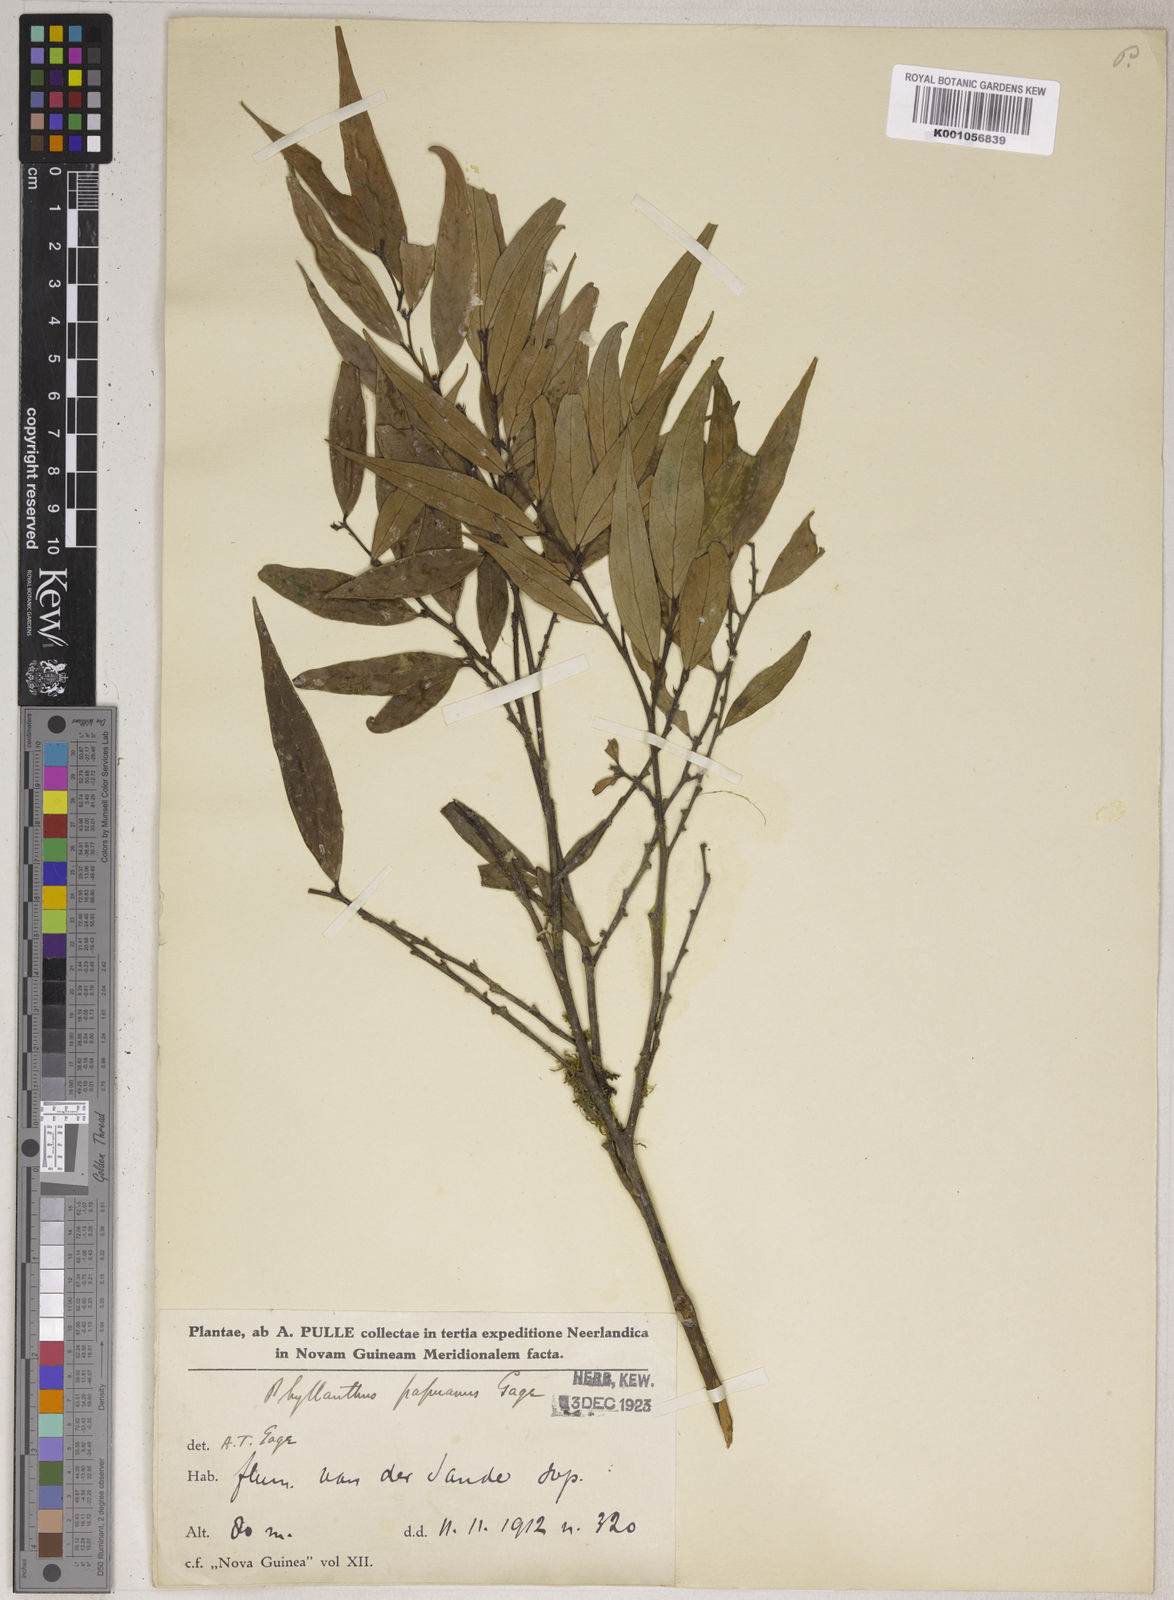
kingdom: Plantae
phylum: Tracheophyta
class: Magnoliopsida
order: Malpighiales
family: Phyllanthaceae
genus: Phyllanthus
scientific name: Phyllanthus papuanus
